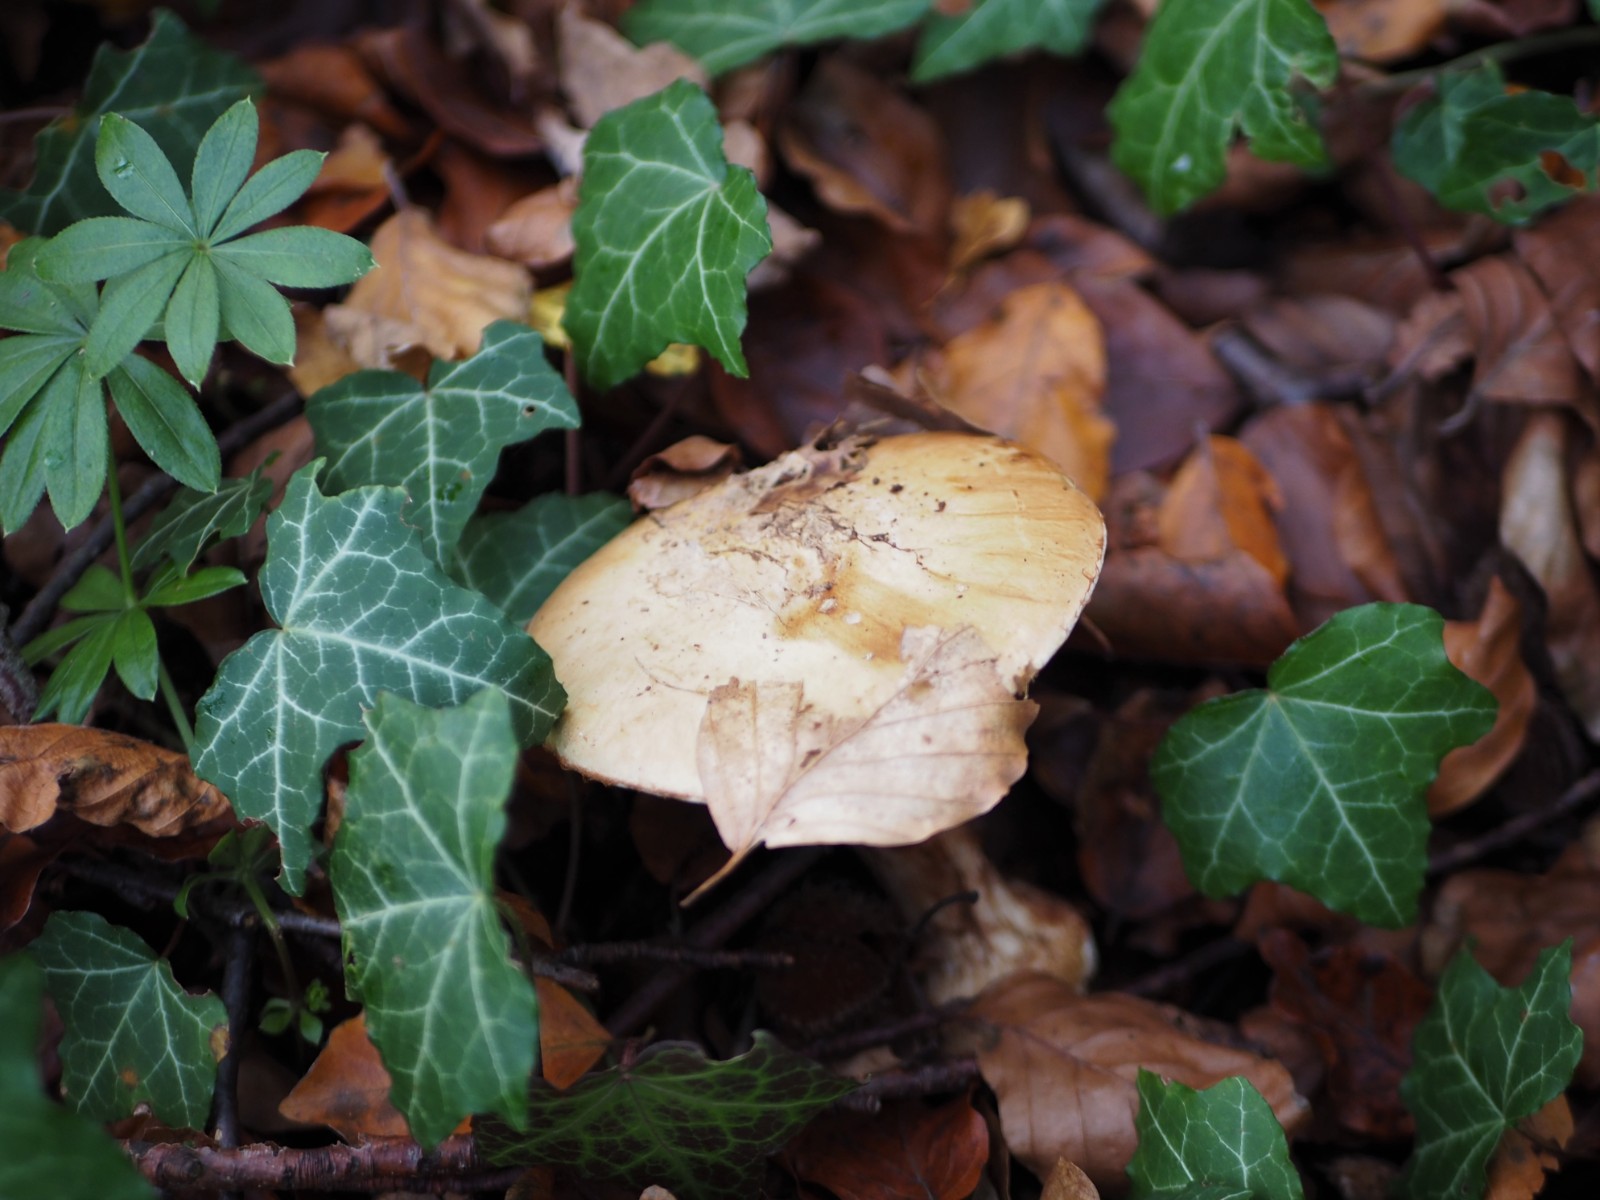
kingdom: Fungi
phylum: Basidiomycota
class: Agaricomycetes
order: Agaricales
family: Cortinariaceae
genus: Cortinarius
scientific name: Cortinarius anserinus
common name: bøge-slørhat
